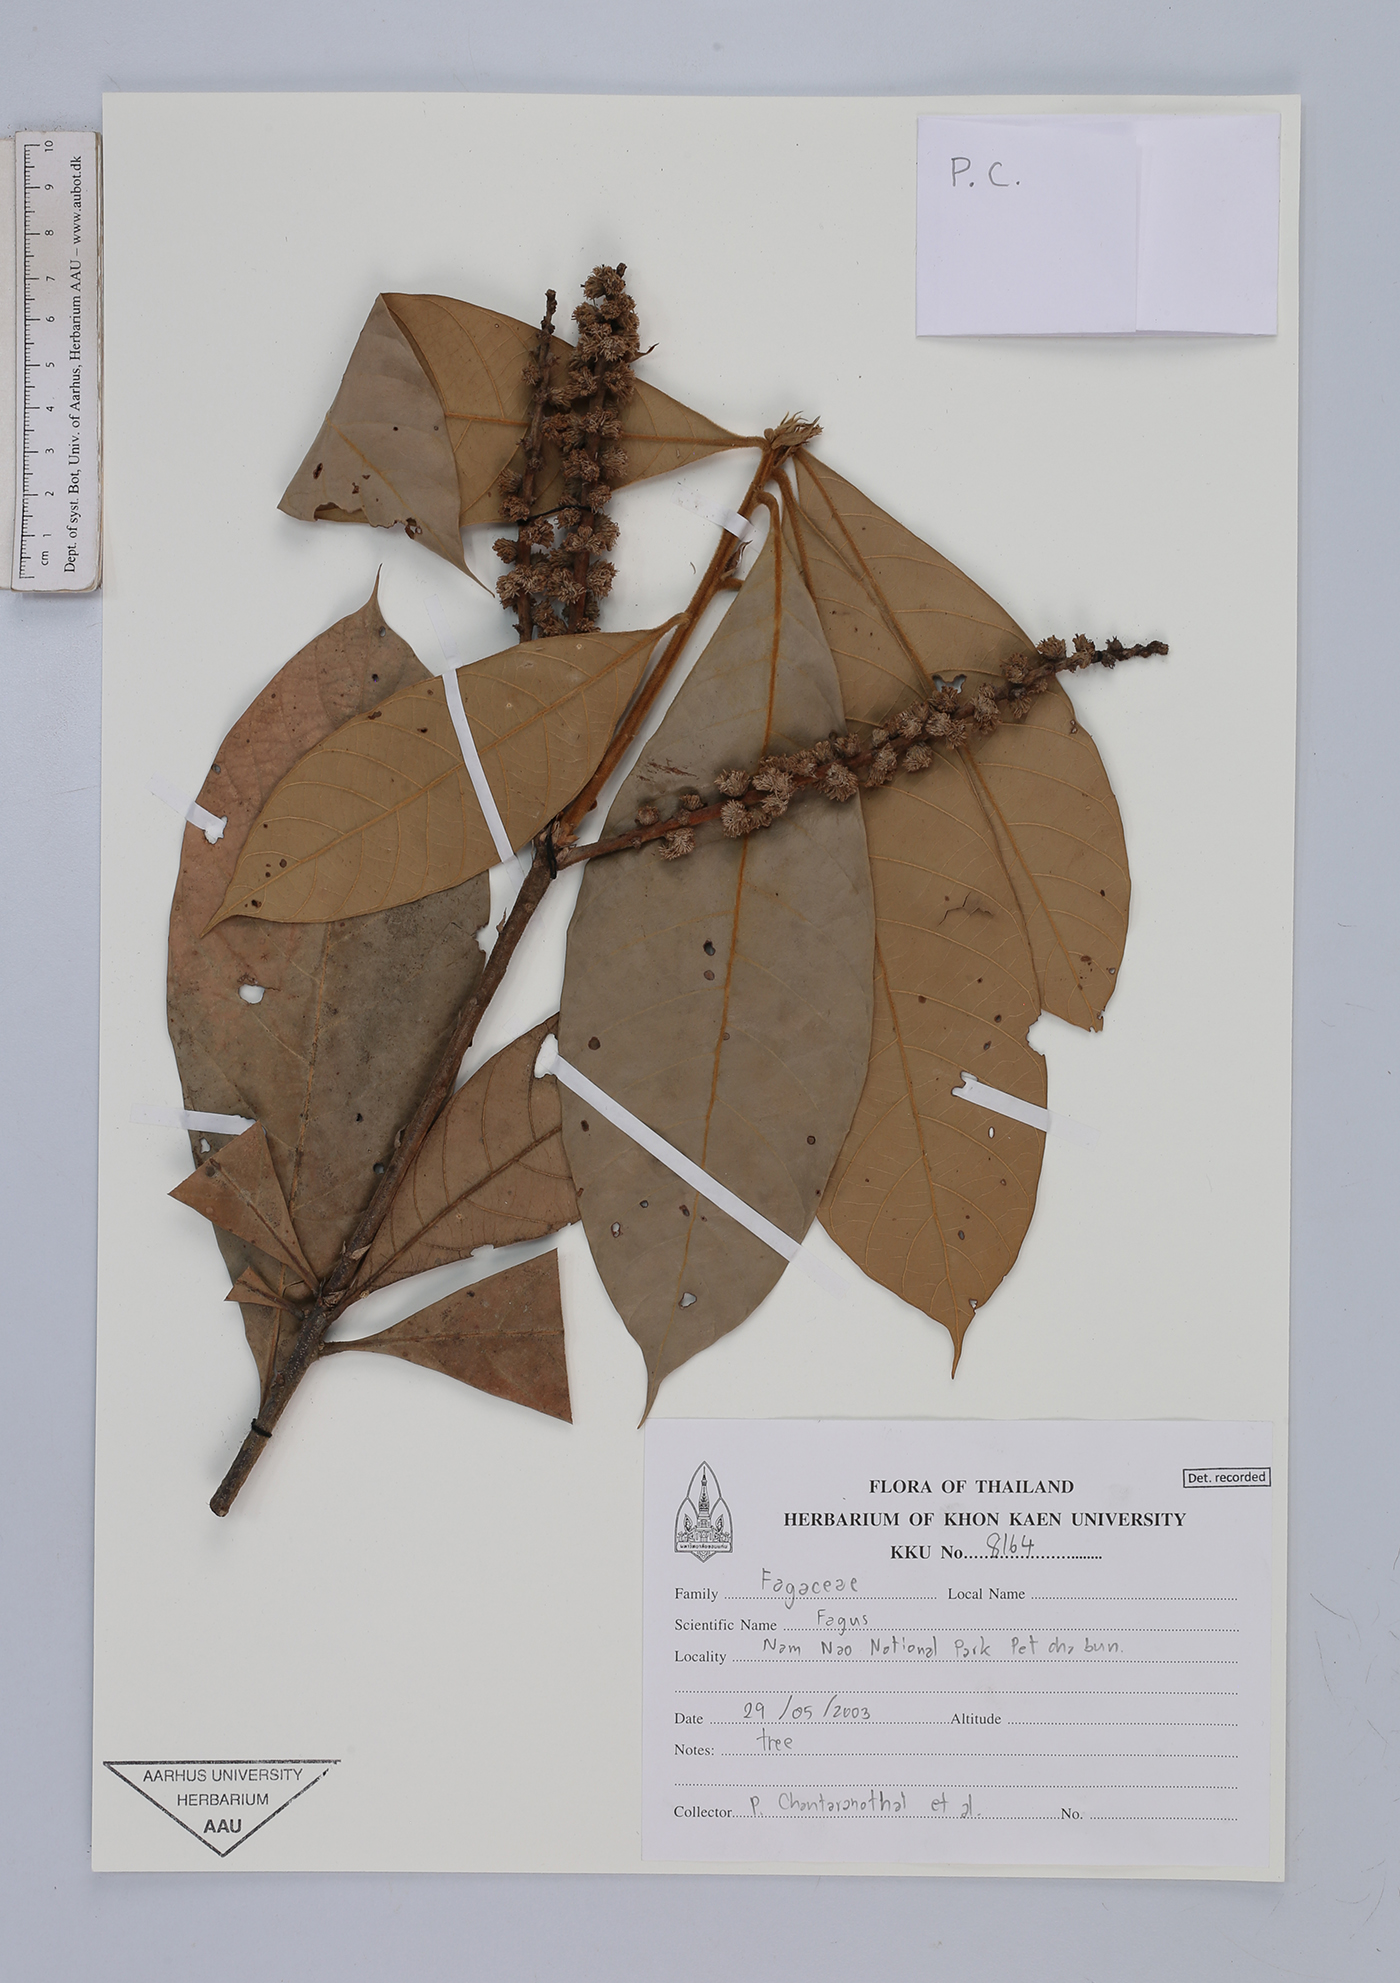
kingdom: Plantae
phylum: Tracheophyta
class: Magnoliopsida
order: Fagales
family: Fagaceae
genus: Fagus
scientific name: Fagus
